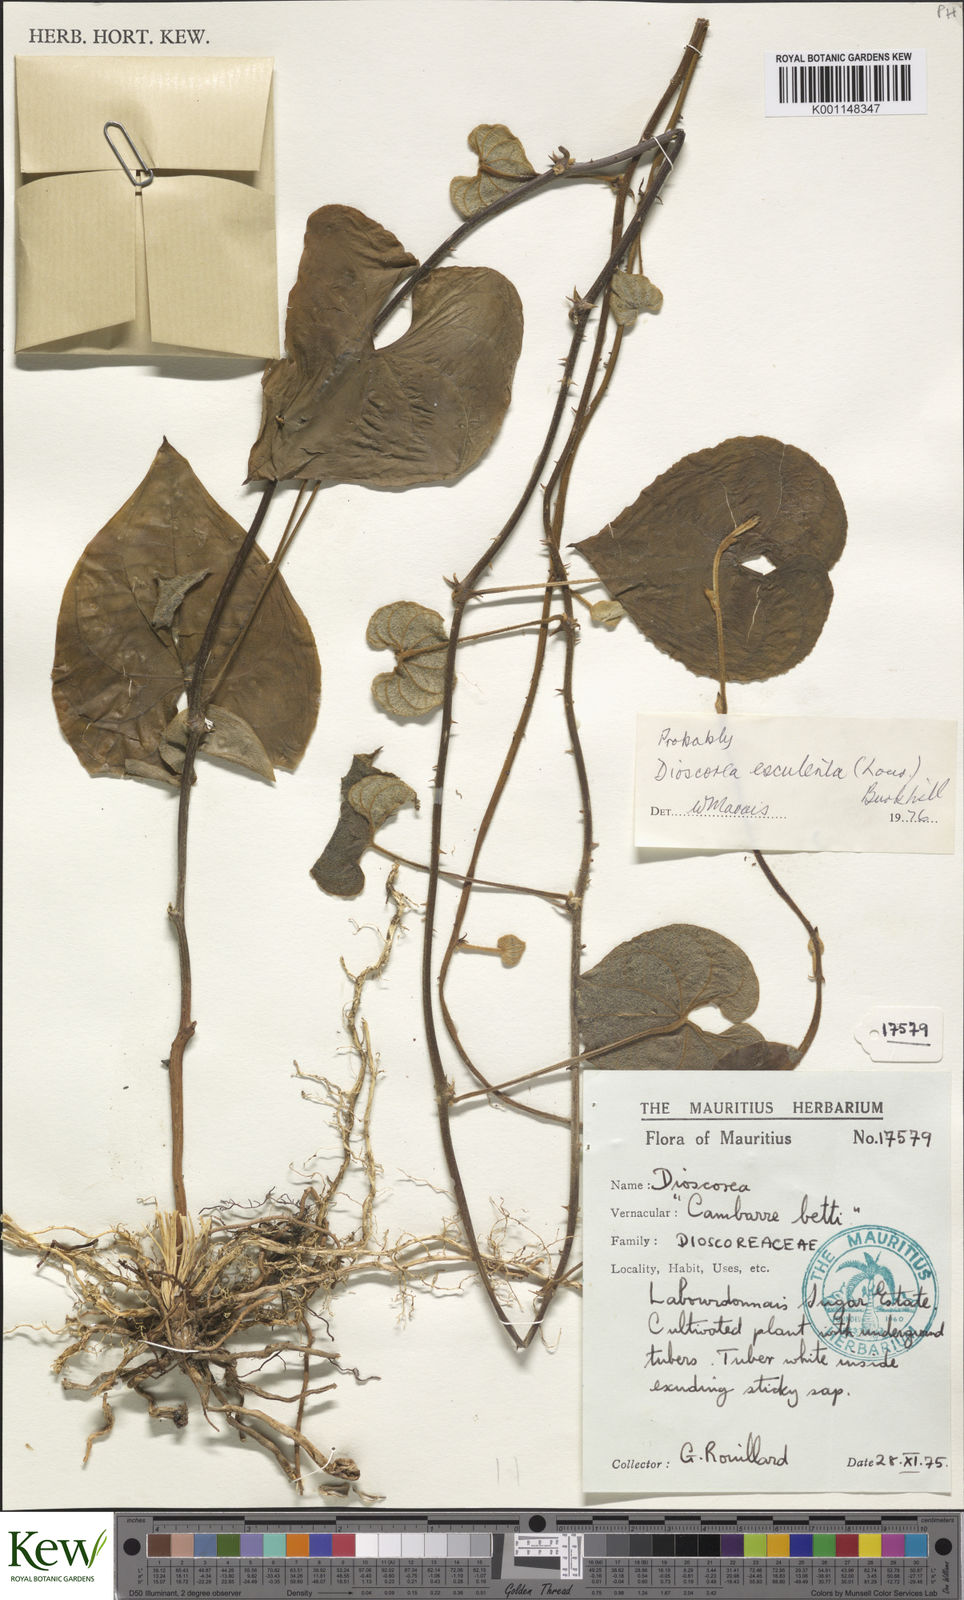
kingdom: Plantae
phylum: Tracheophyta
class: Liliopsida
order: Dioscoreales
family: Dioscoreaceae
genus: Dioscorea
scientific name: Dioscorea esculenta
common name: Chinese yam
